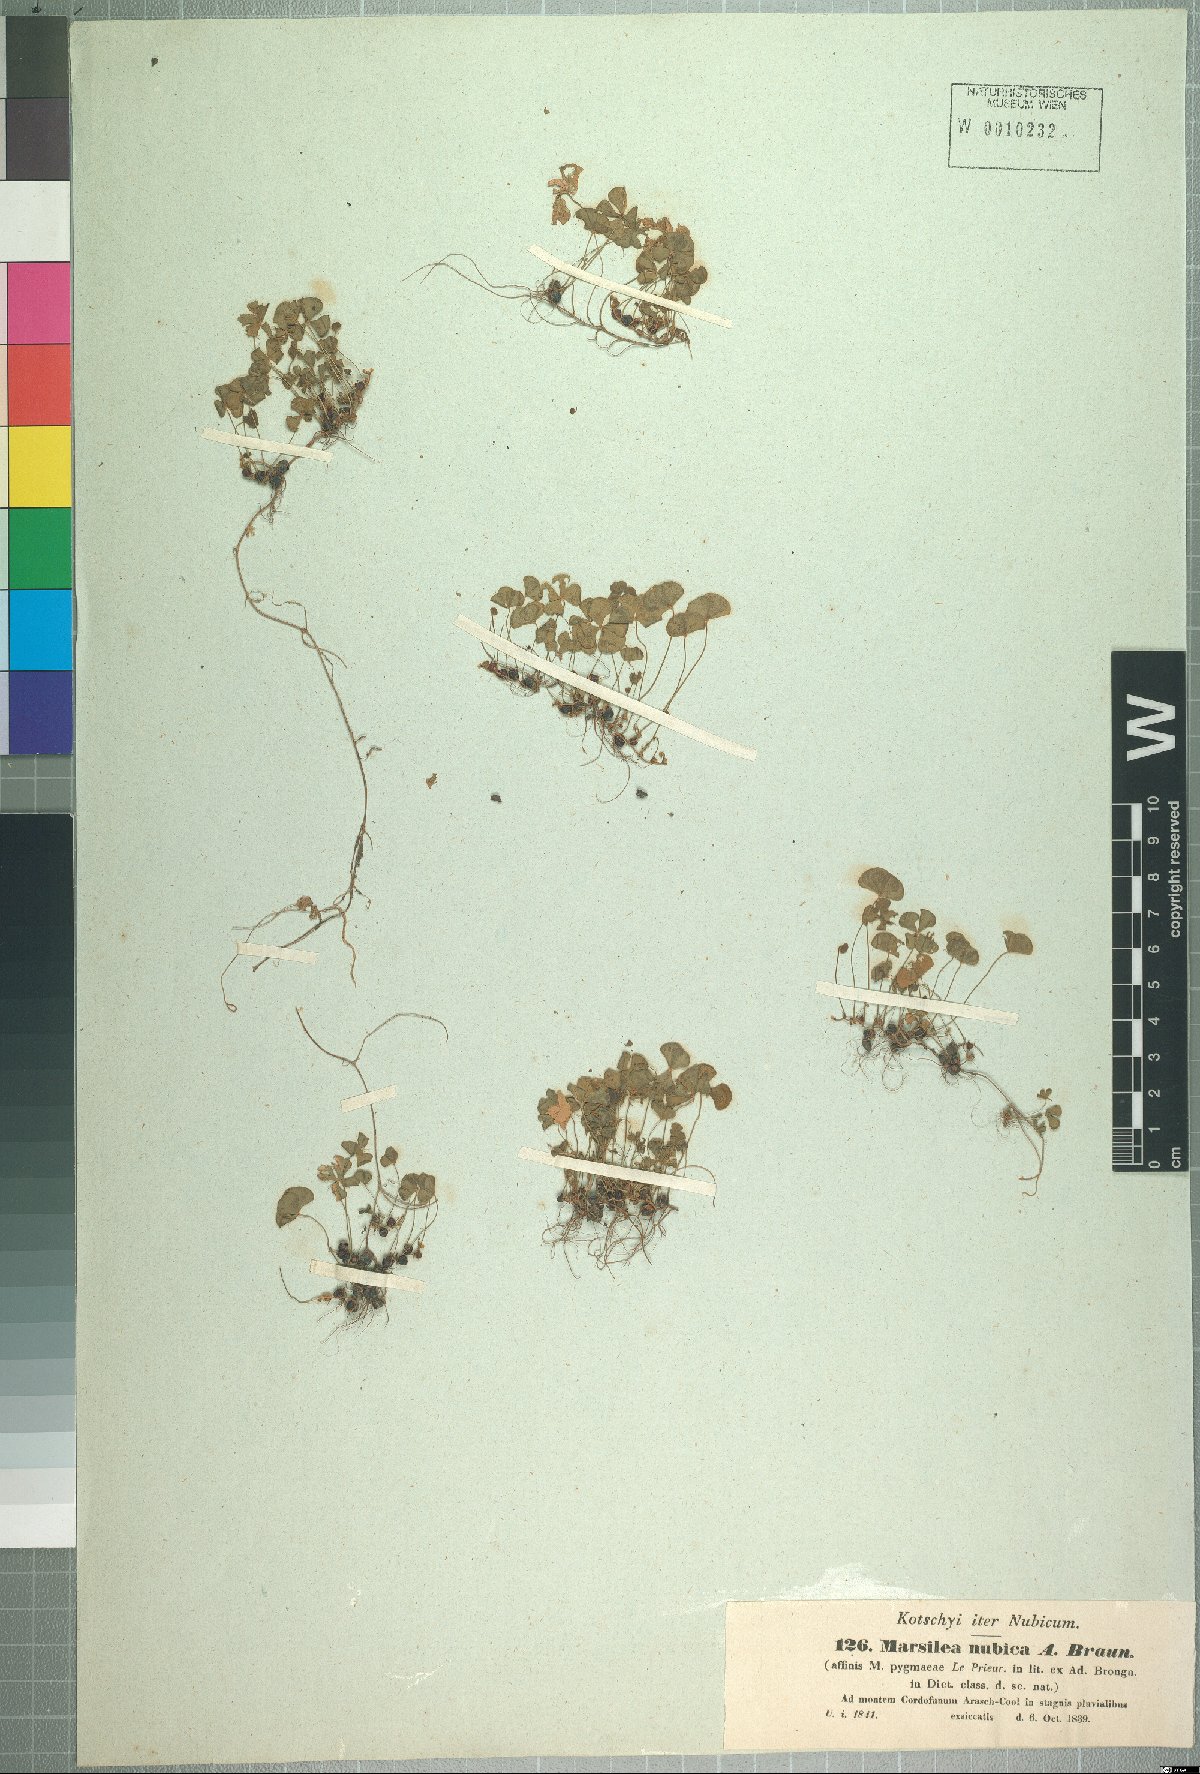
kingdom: Plantae
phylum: Tracheophyta
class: Polypodiopsida
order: Salviniales
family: Marsileaceae
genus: Marsilea
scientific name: Marsilea nubica
